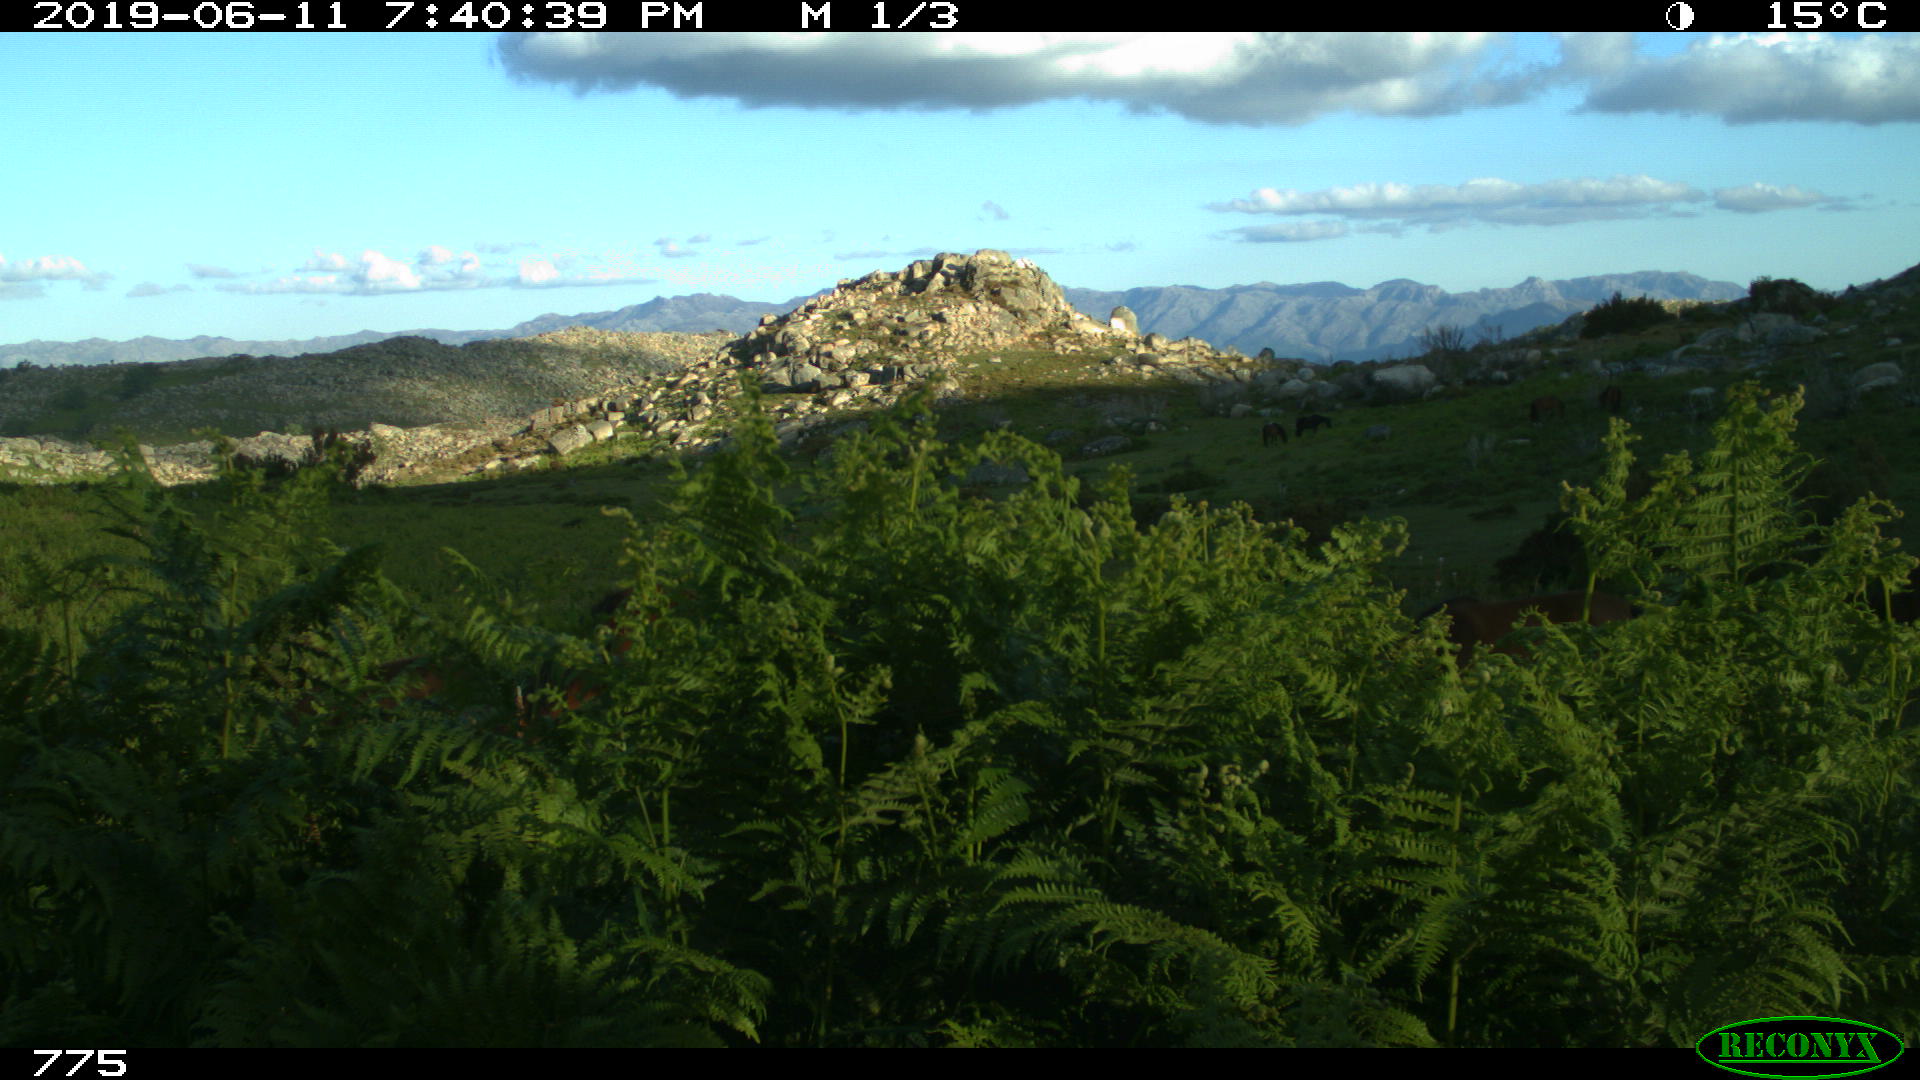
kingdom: Animalia
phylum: Chordata
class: Mammalia
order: Perissodactyla
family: Equidae
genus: Equus
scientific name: Equus caballus
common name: Horse
